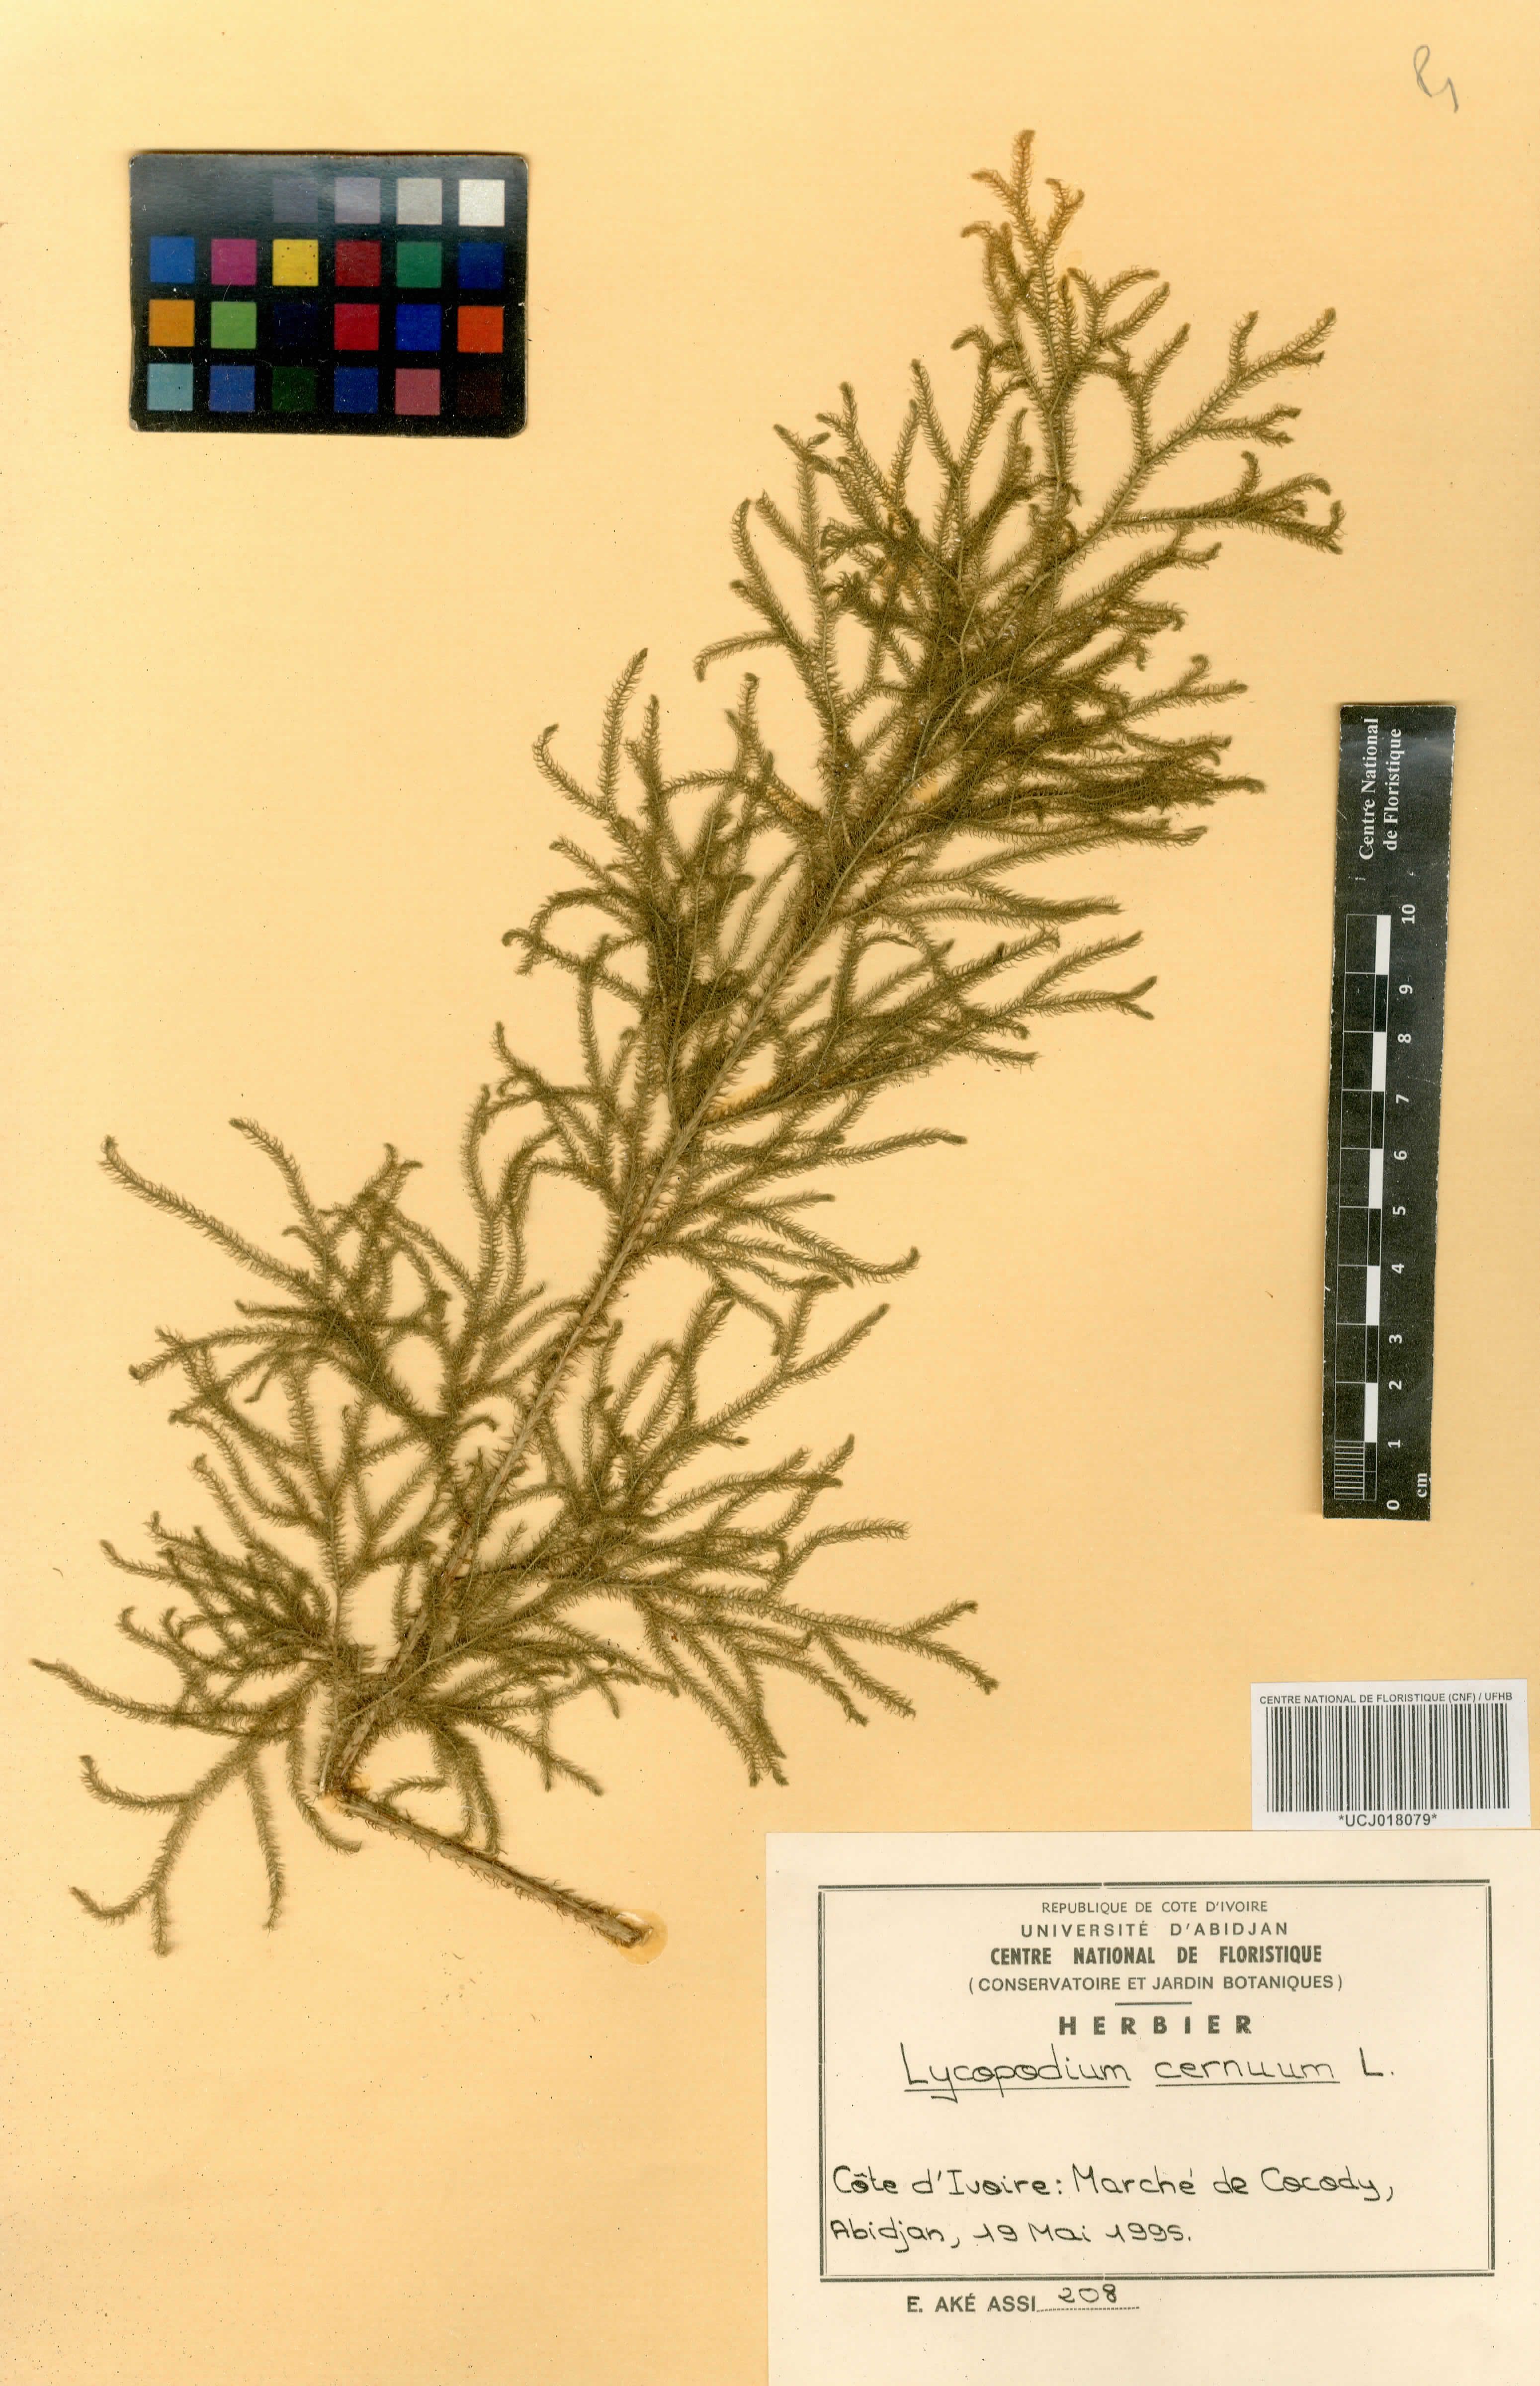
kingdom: Plantae
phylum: Tracheophyta
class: Lycopodiopsida
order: Lycopodiales
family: Lycopodiaceae
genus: Palhinhaea
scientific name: Palhinhaea cernua
